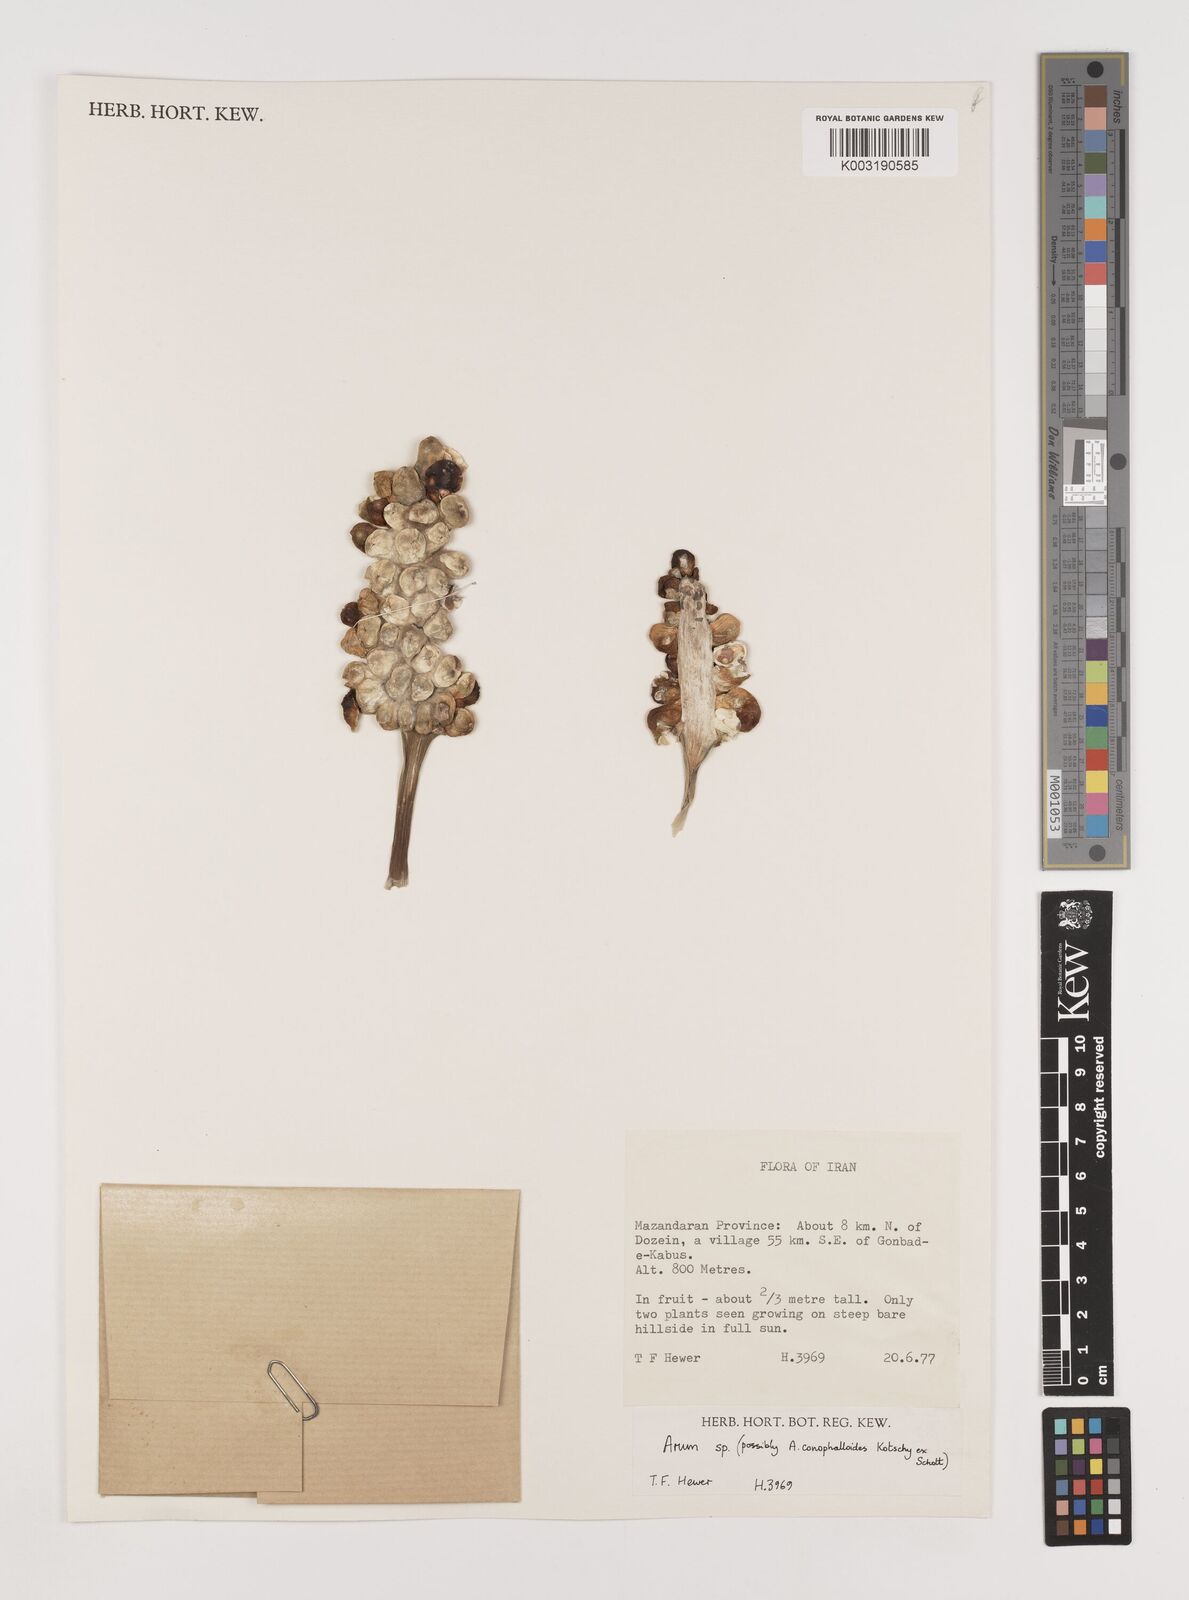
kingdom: Plantae
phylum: Tracheophyta
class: Liliopsida
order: Alismatales
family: Araceae
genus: Arum
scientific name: Arum
